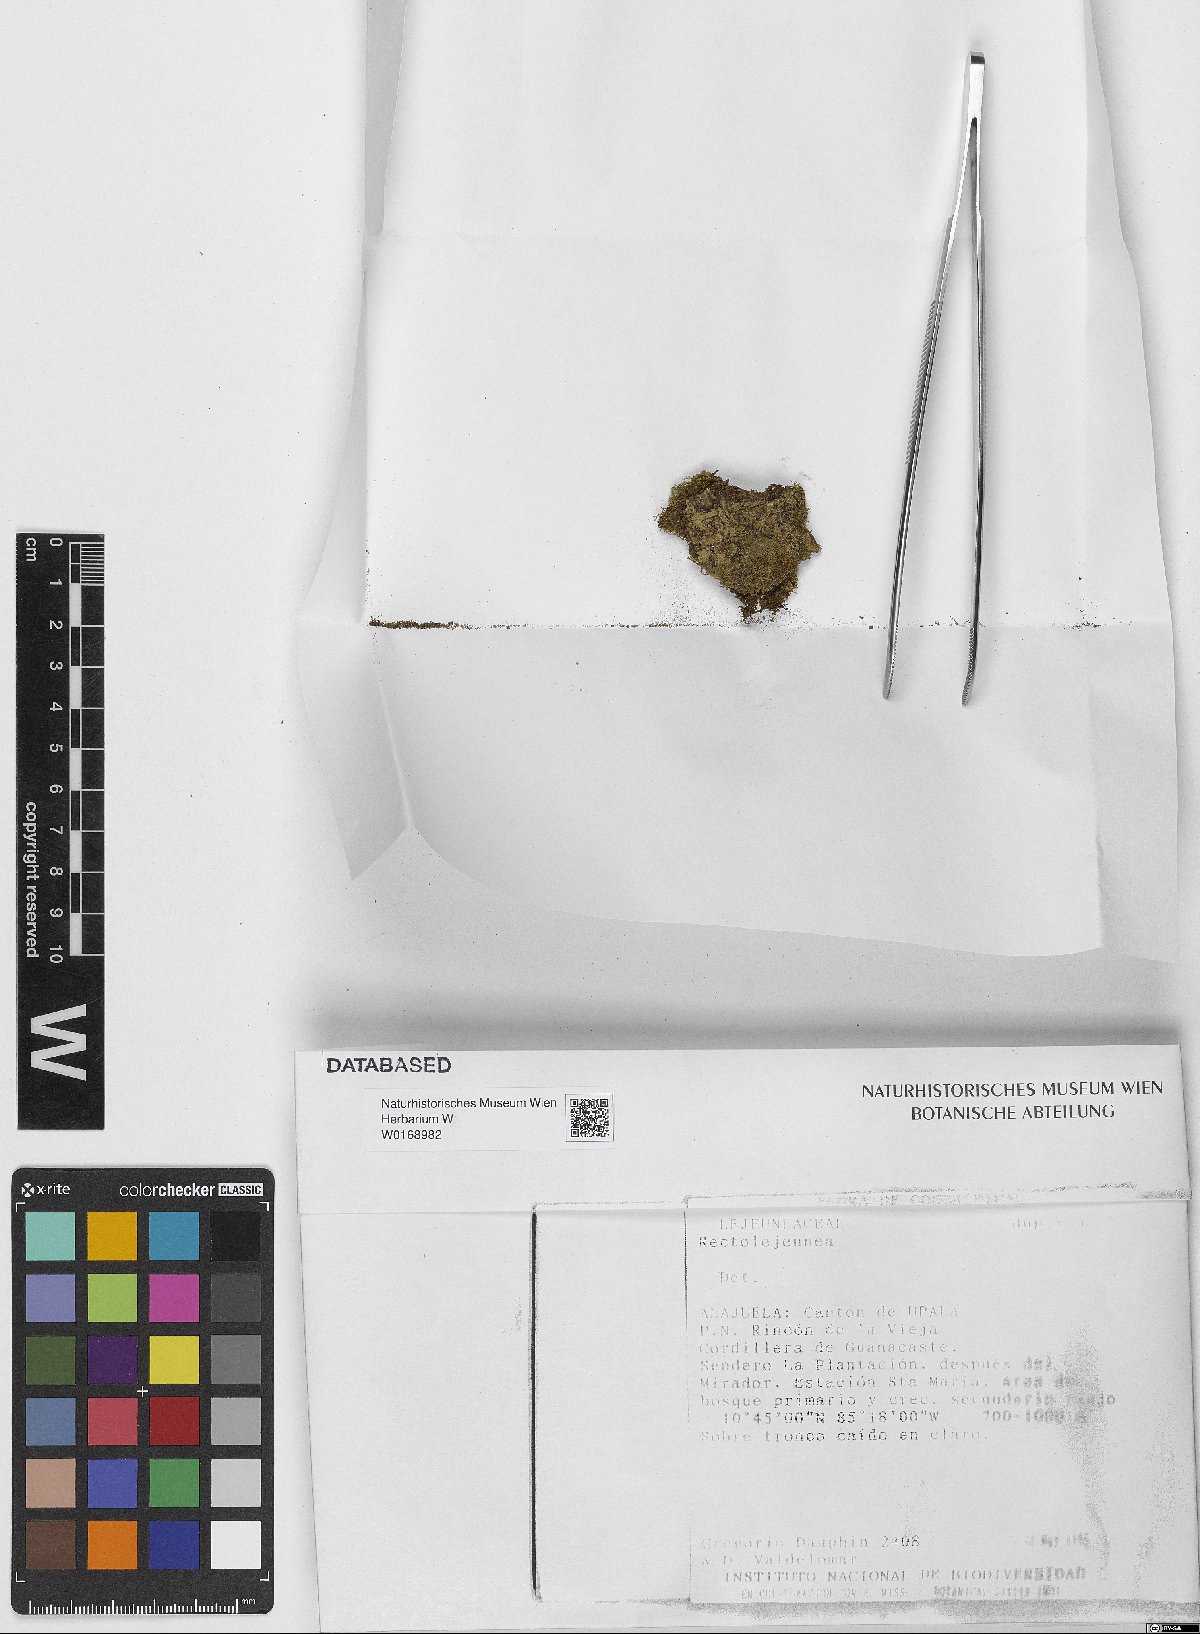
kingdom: Plantae
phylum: Marchantiophyta
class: Jungermanniopsida
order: Porellales
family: Lejeuneaceae
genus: Rectolejeunea
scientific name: Rectolejeunea
